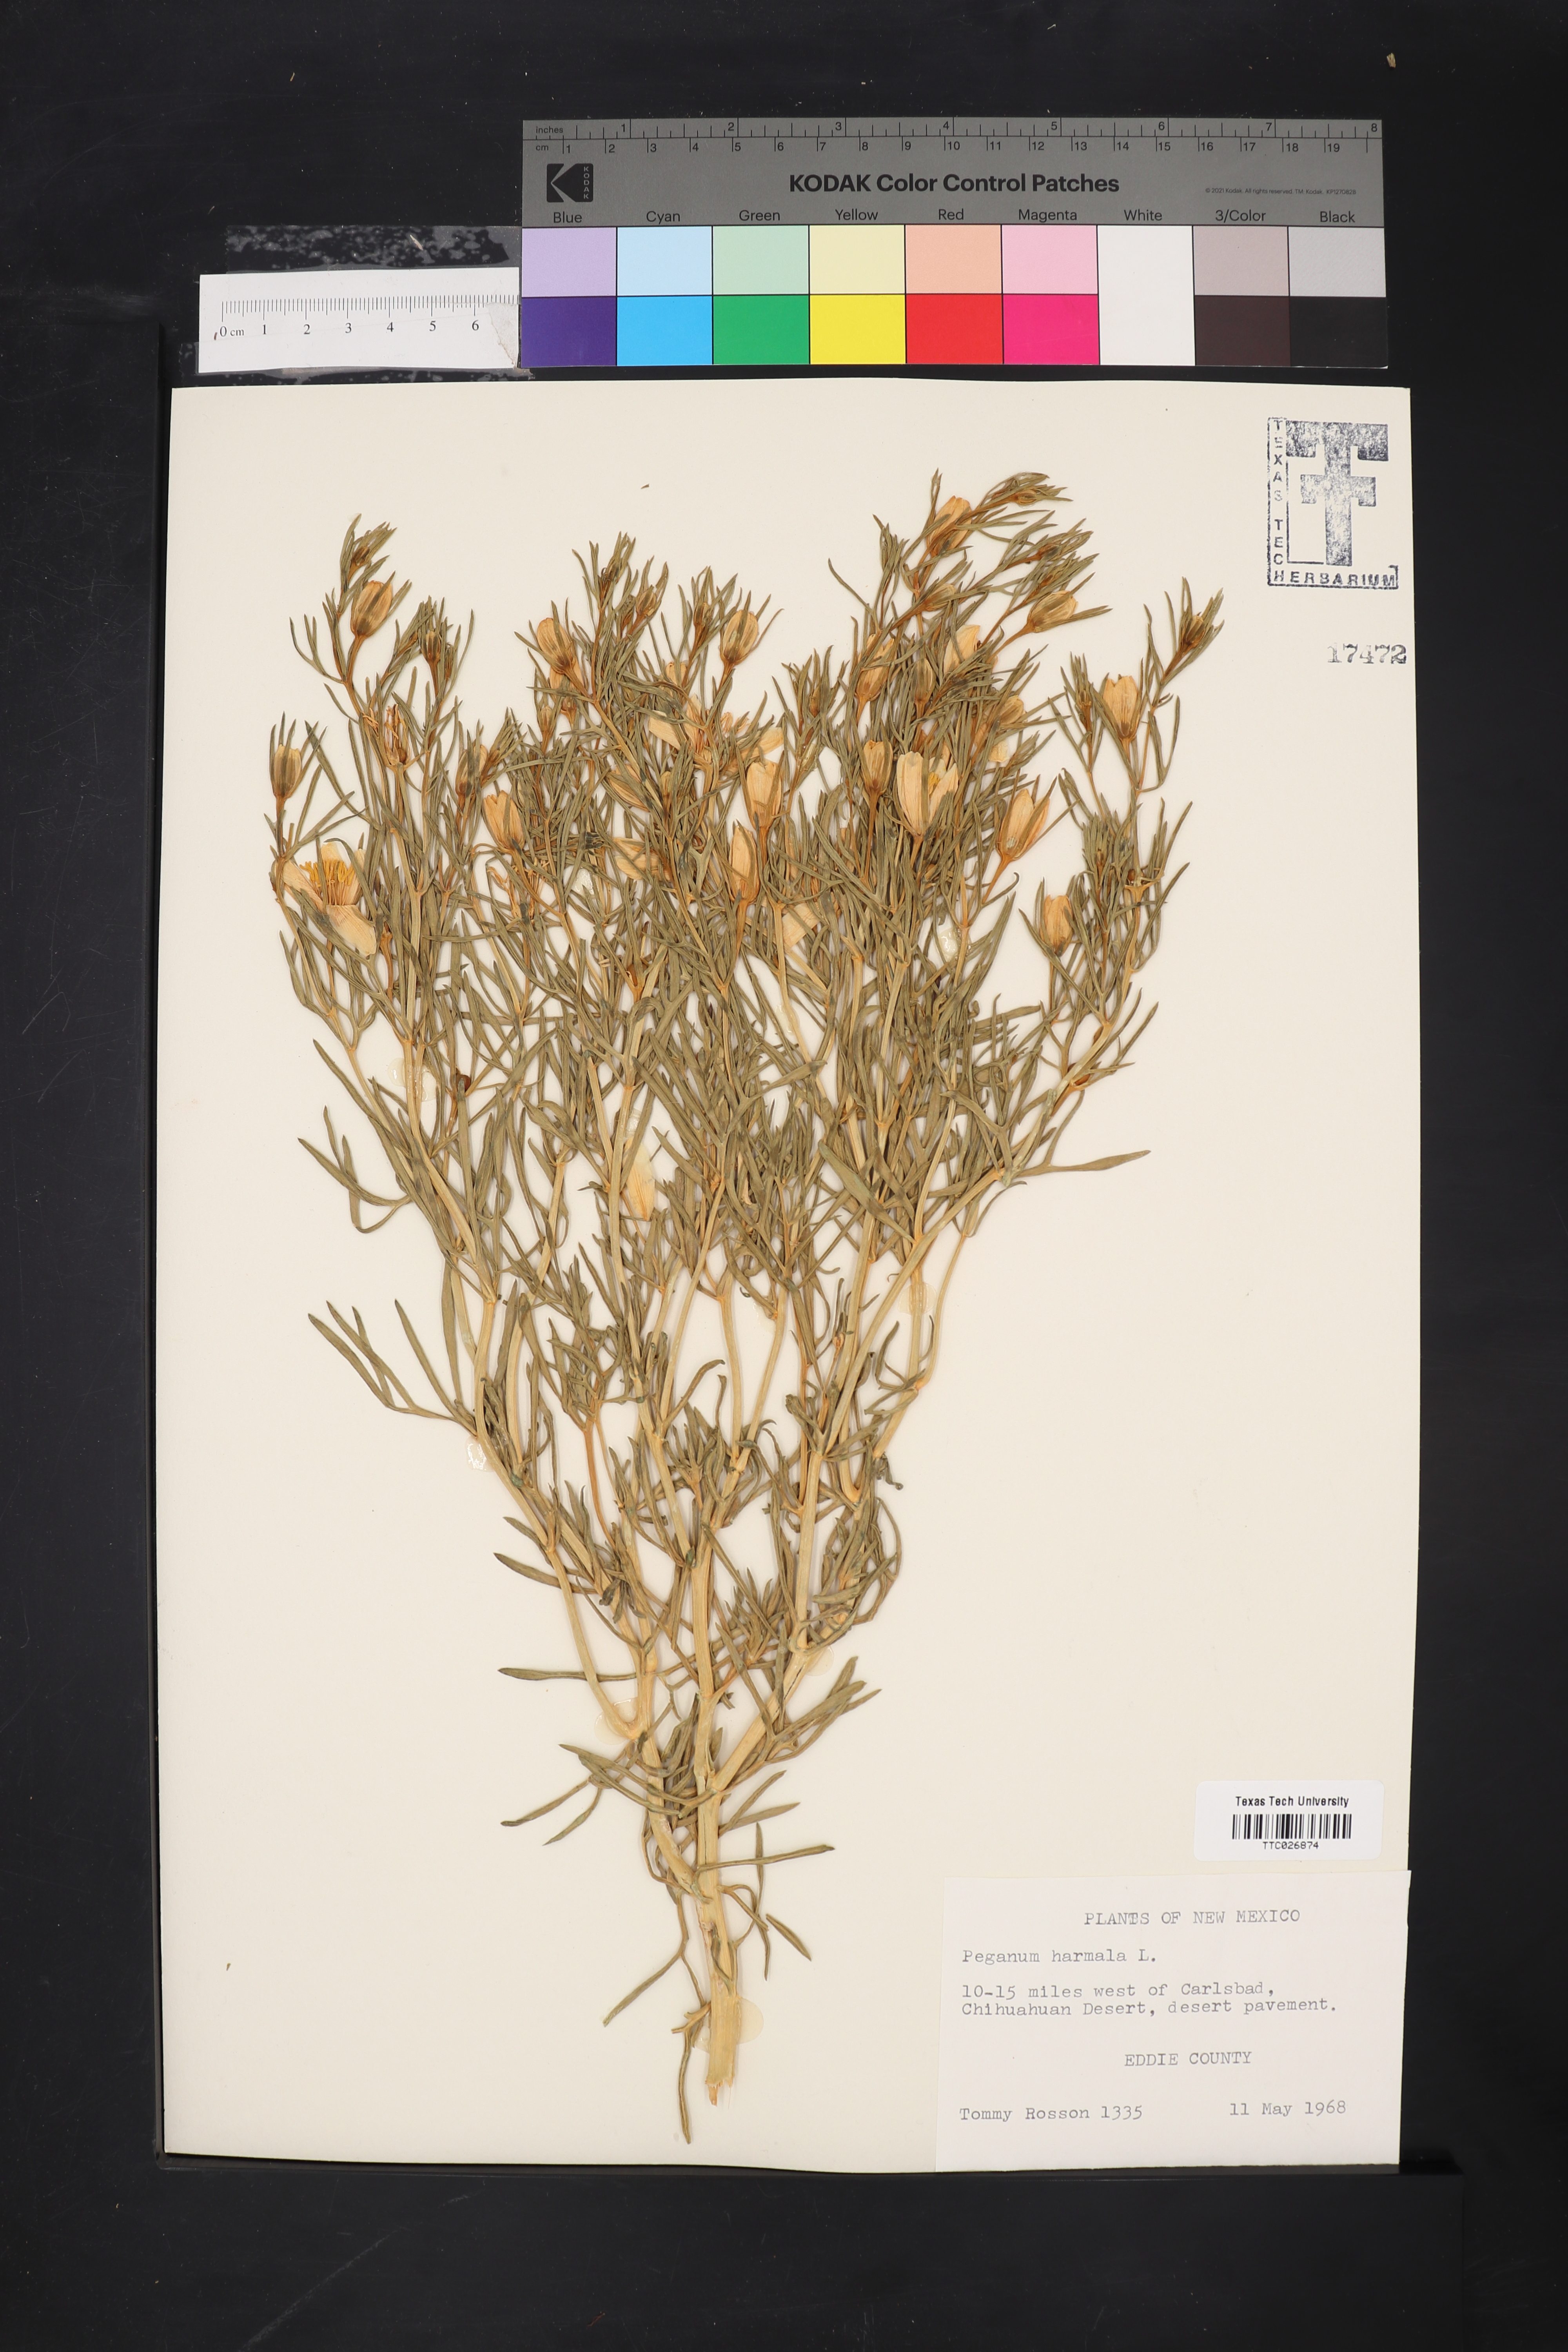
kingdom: Plantae
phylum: Tracheophyta
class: Magnoliopsida
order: Sapindales
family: Tetradiclidaceae
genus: Peganum
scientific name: Peganum harmala
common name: Harmal peganum
